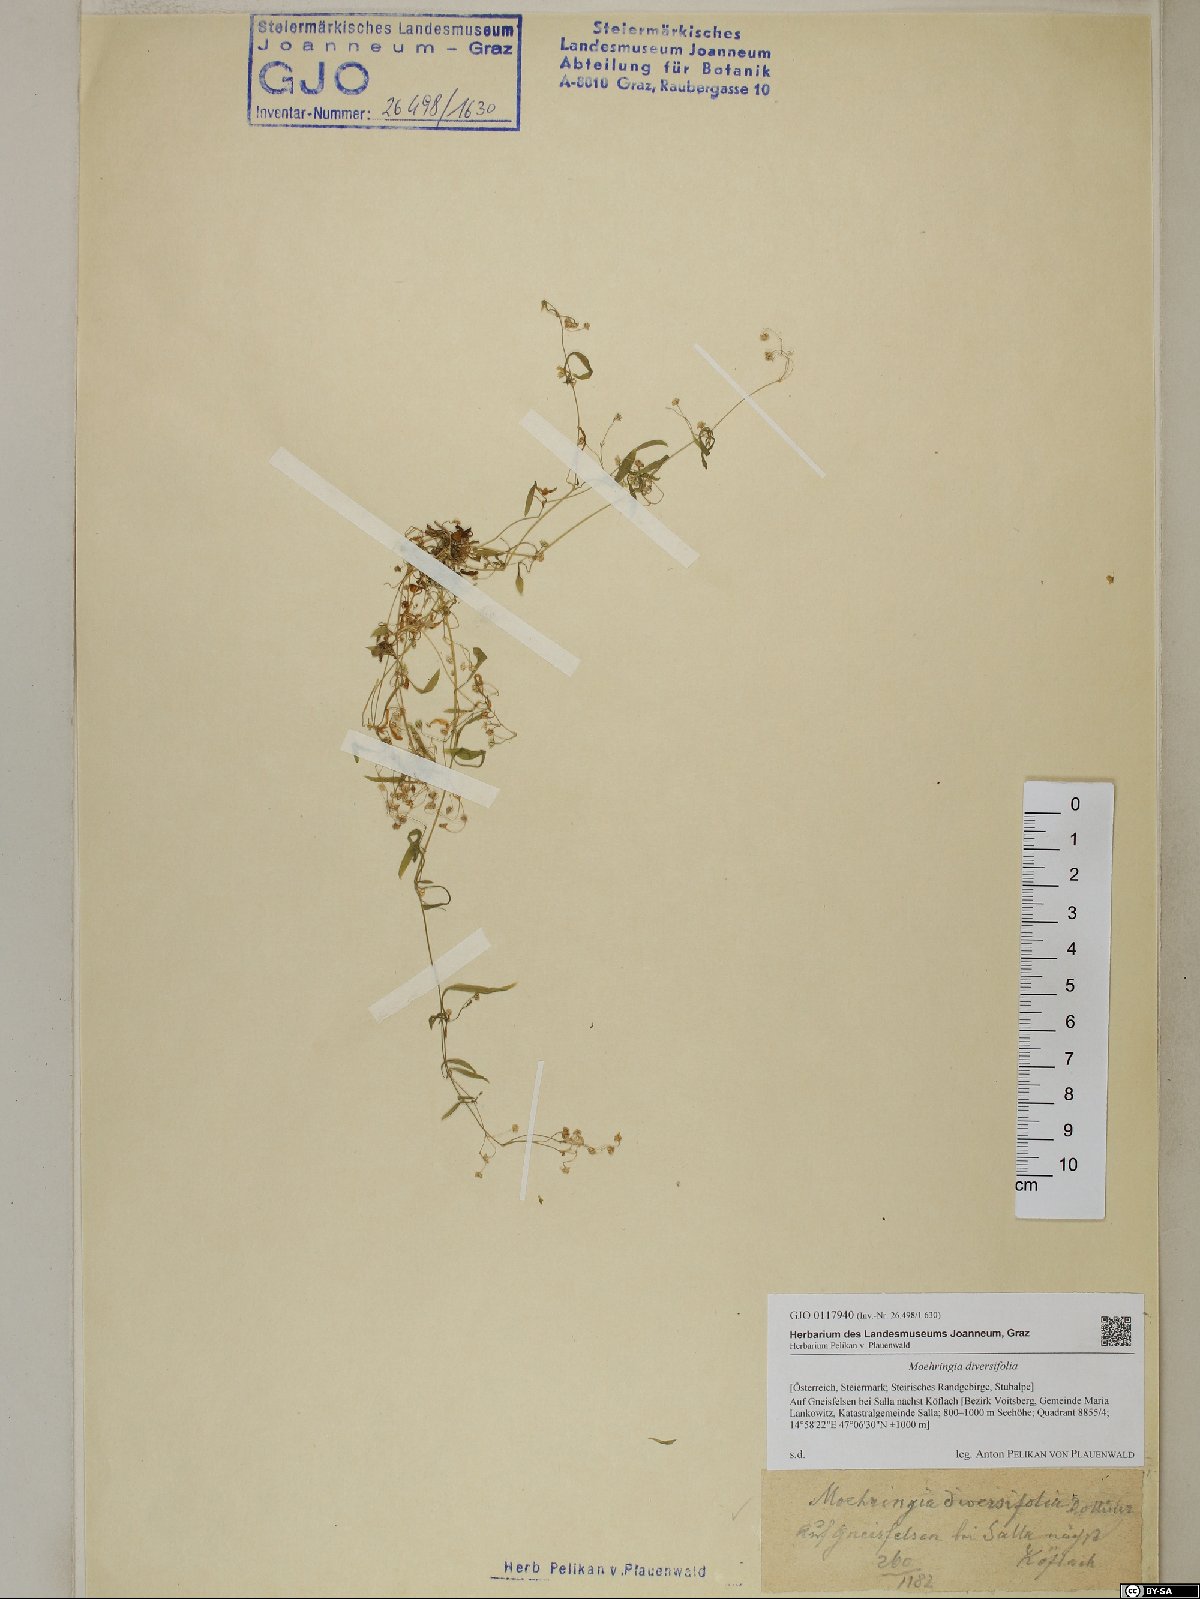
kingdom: Plantae
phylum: Tracheophyta
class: Magnoliopsida
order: Caryophyllales
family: Caryophyllaceae
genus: Moehringia
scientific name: Moehringia diversifolia
